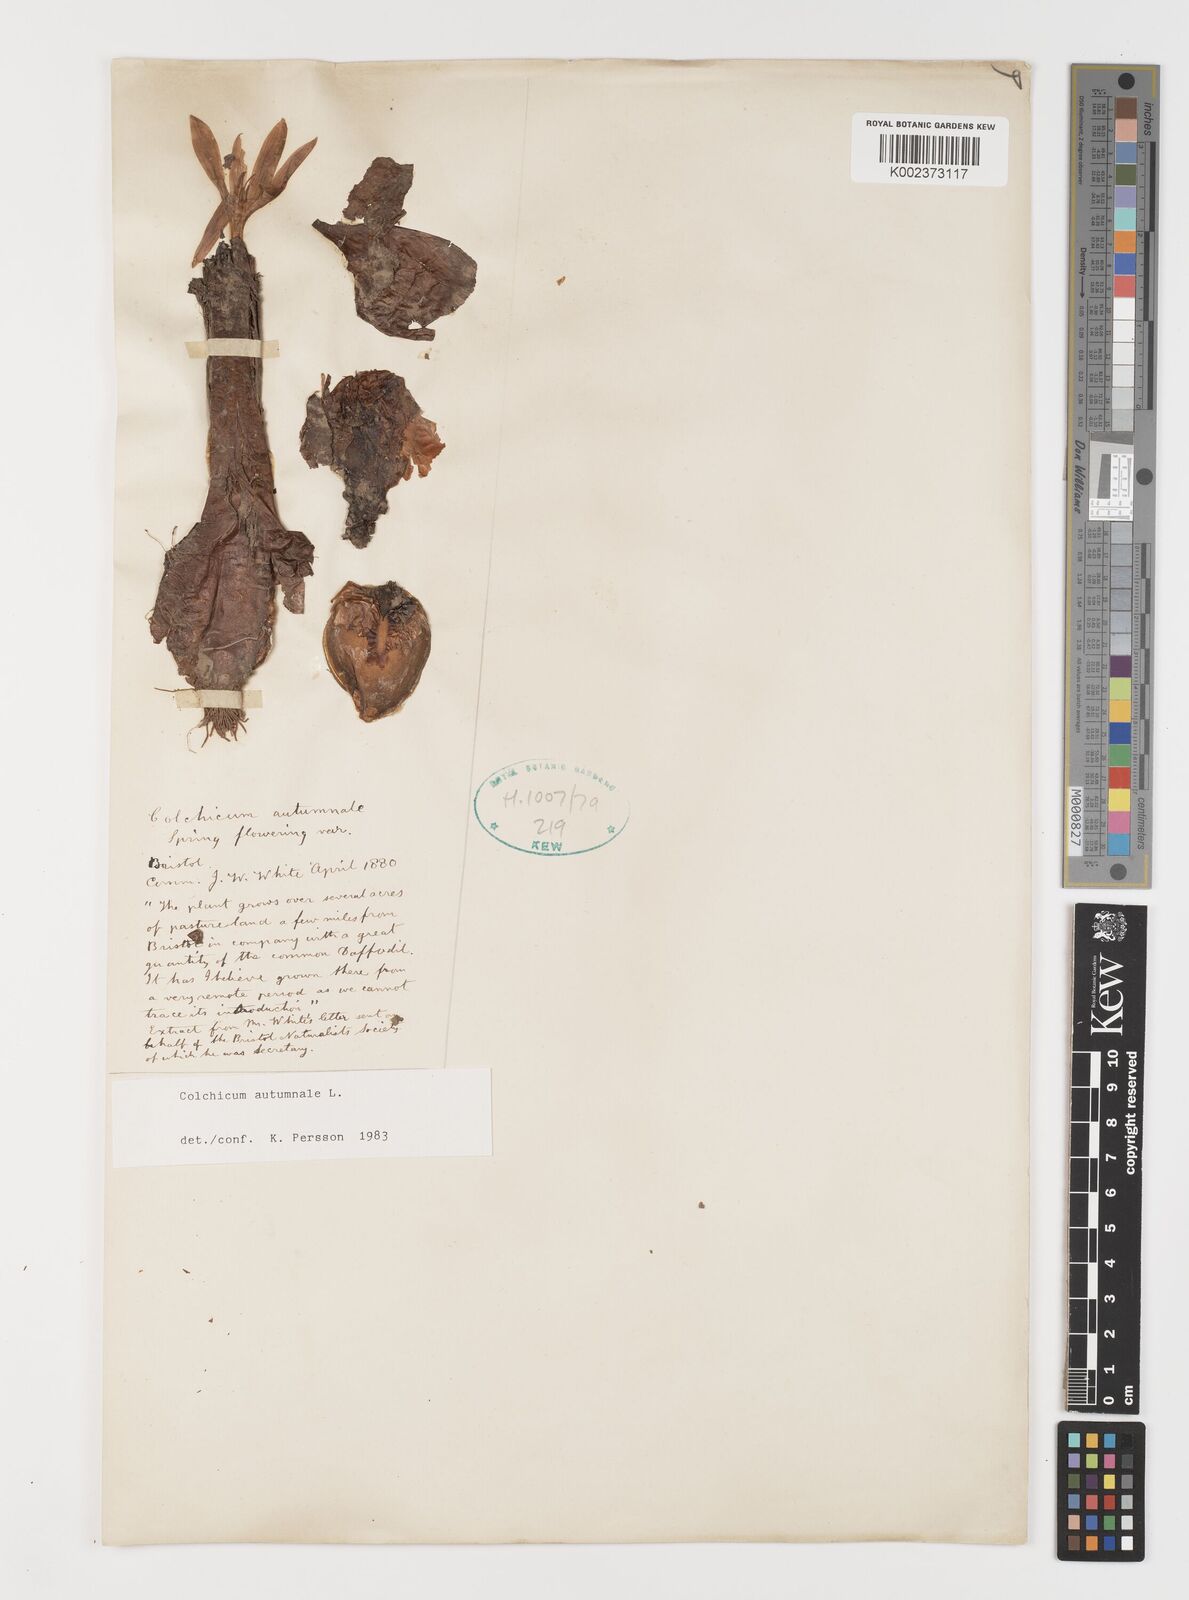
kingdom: Plantae
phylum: Tracheophyta
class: Liliopsida
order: Liliales
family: Colchicaceae
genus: Colchicum
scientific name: Colchicum autumnale
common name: Autumn crocus
